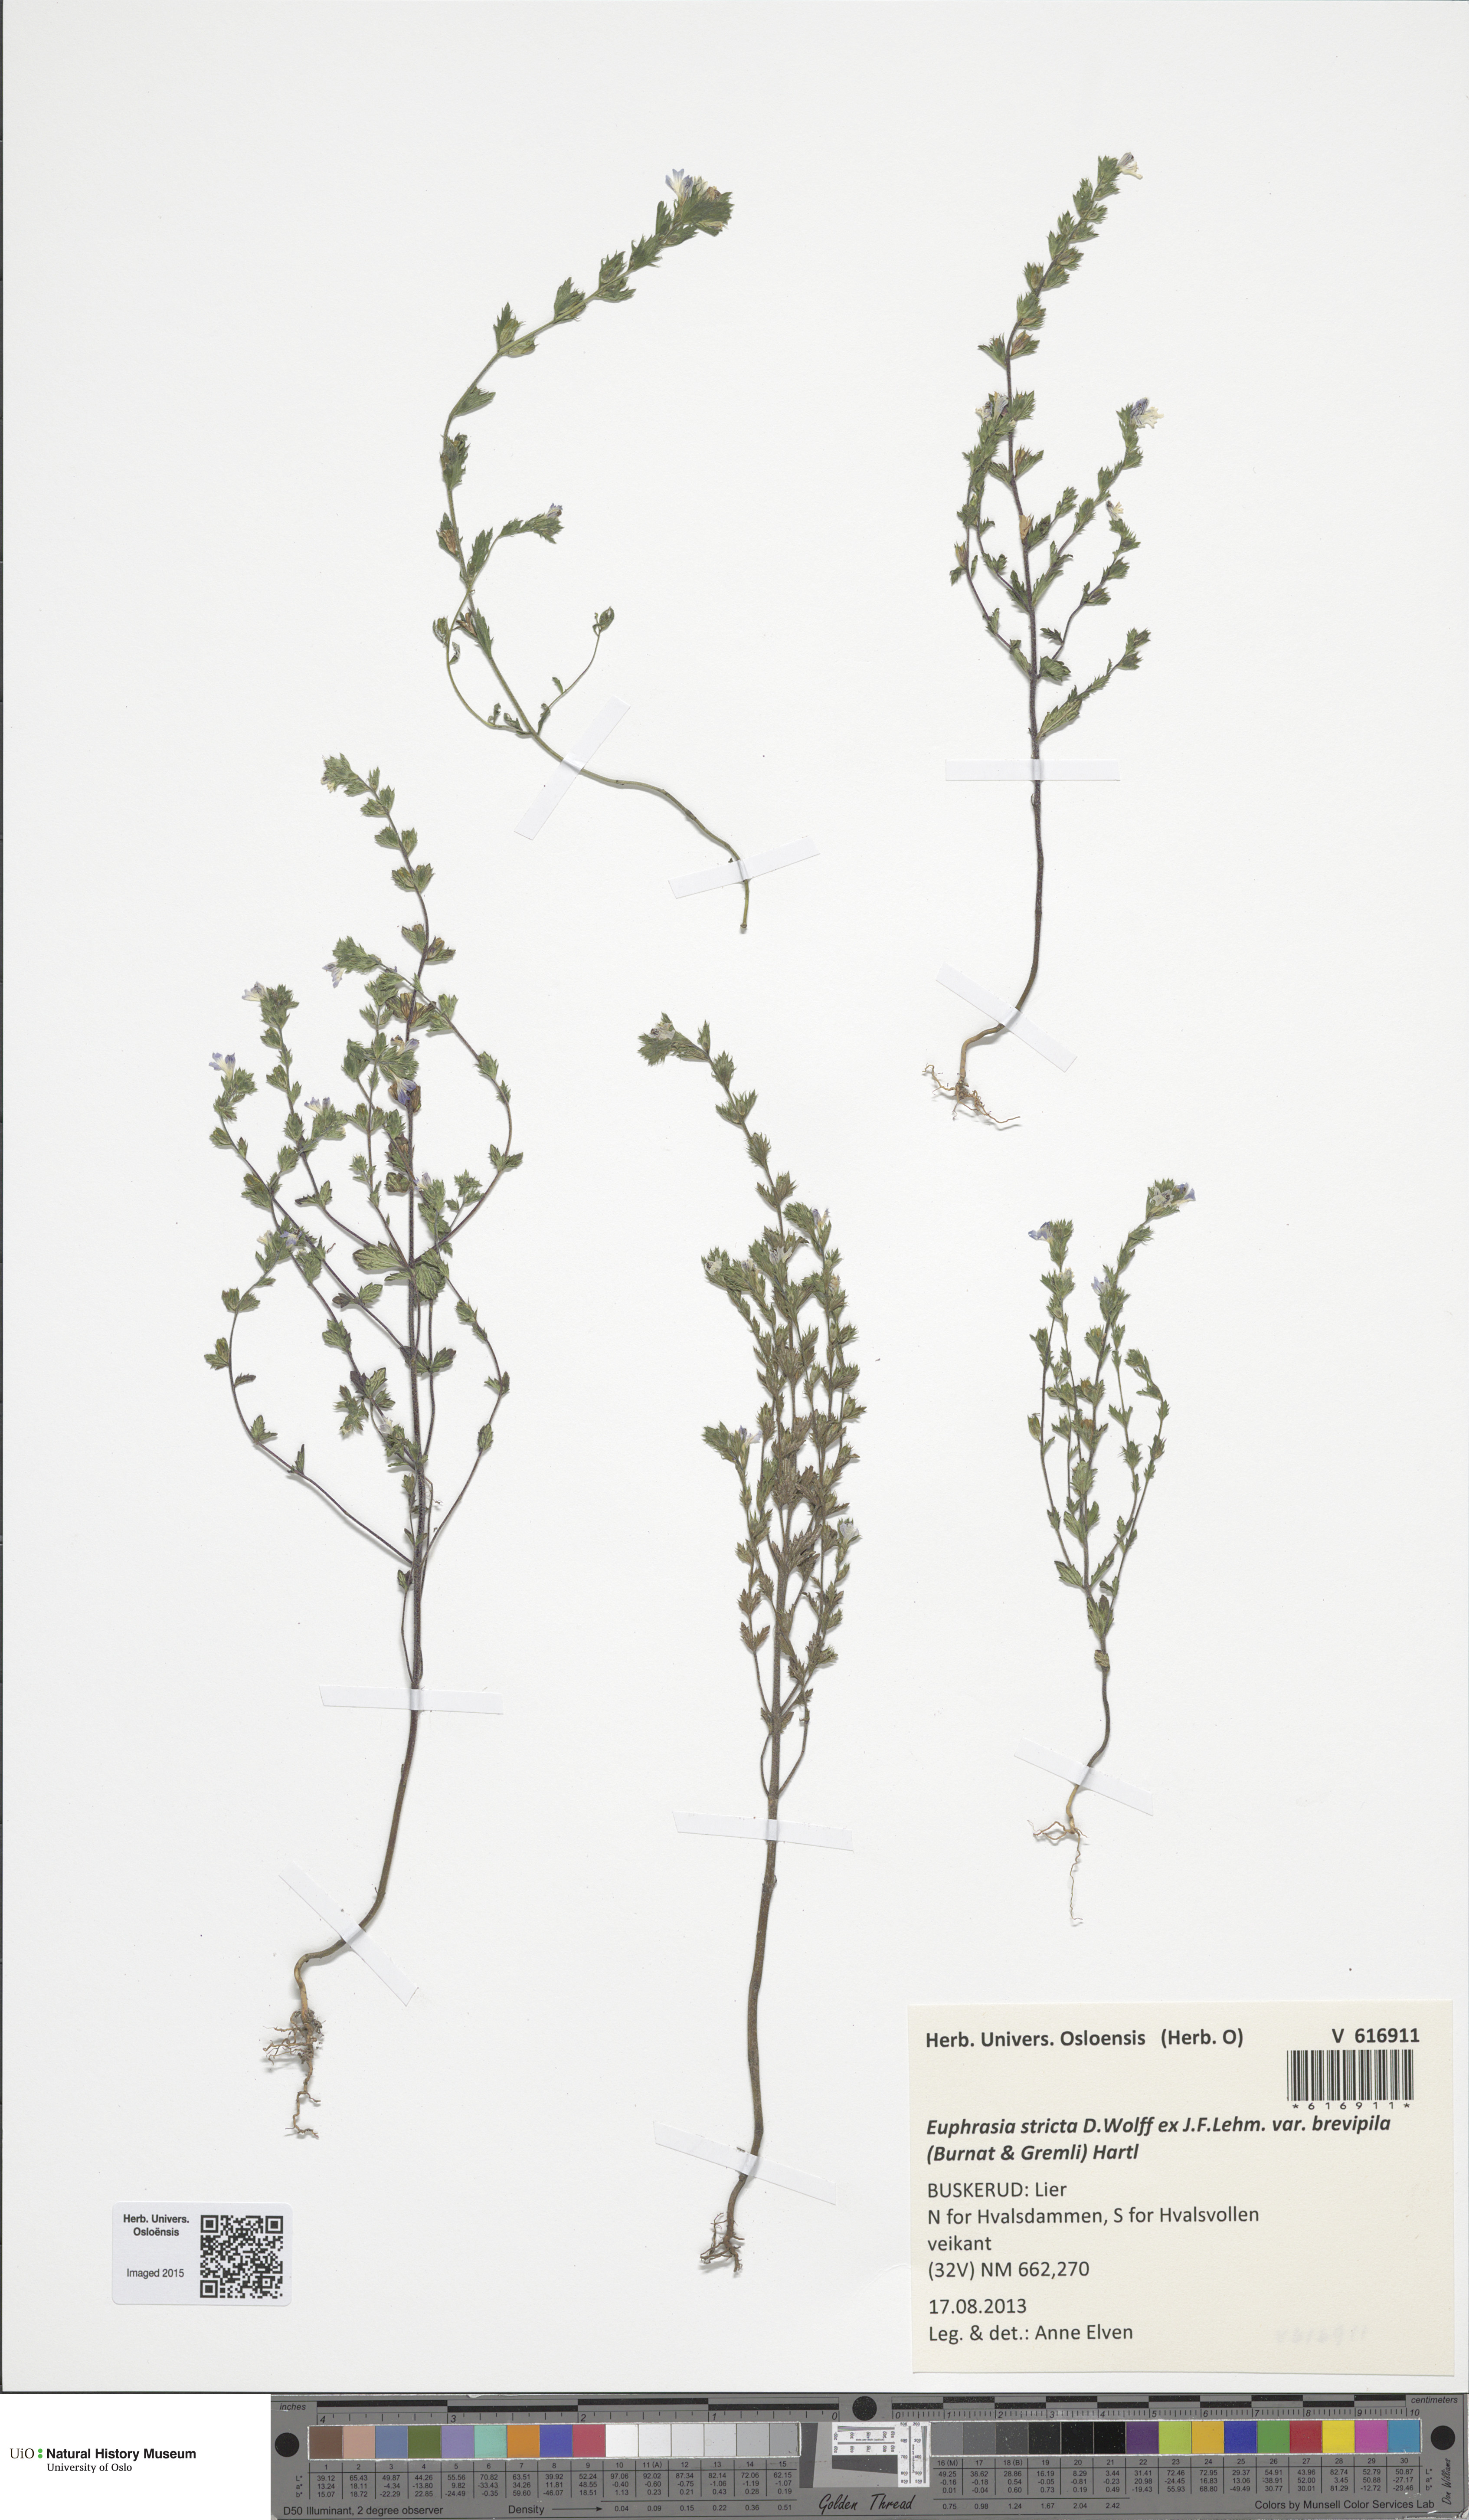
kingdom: Plantae
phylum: Tracheophyta
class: Magnoliopsida
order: Lamiales
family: Orobanchaceae
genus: Euphrasia
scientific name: Euphrasia vernalis
